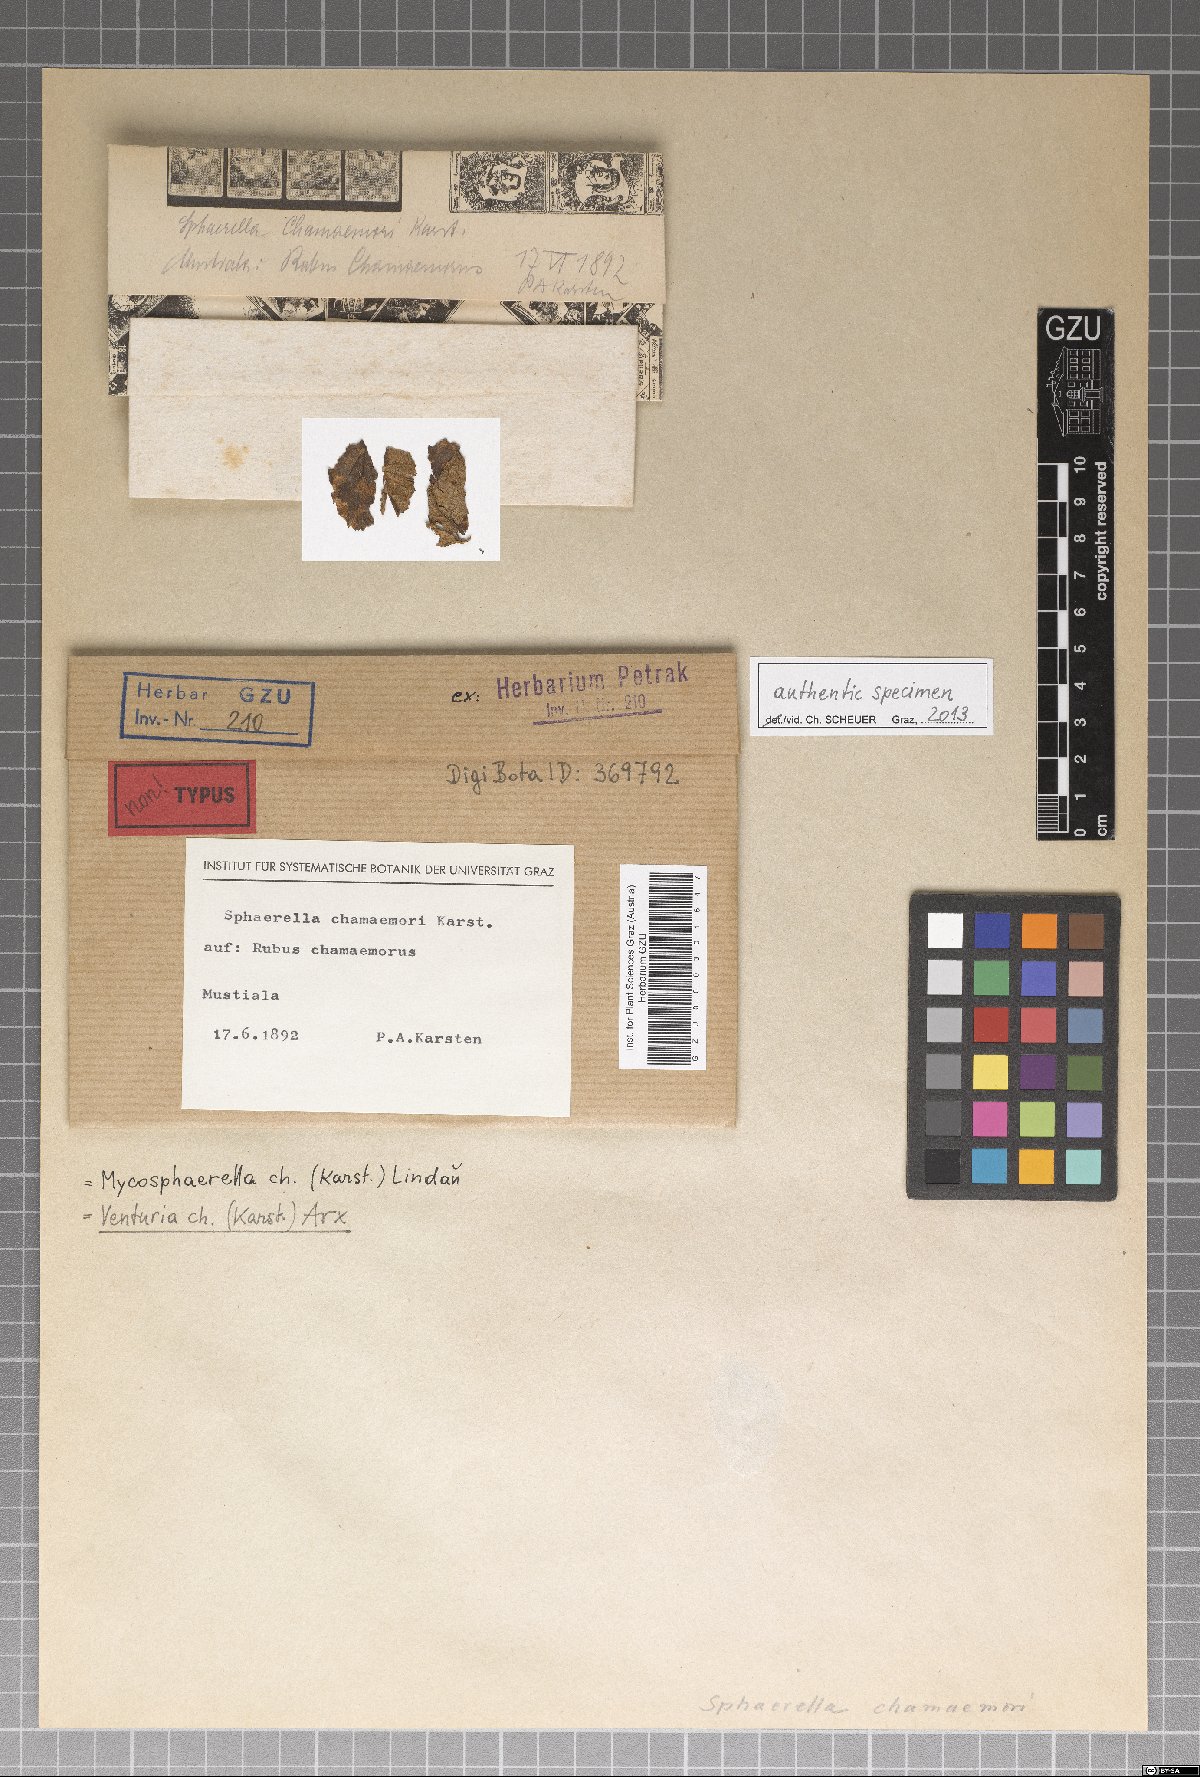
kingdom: Fungi
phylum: Ascomycota
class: Dothideomycetes
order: Venturiales
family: Venturiaceae
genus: Venturia
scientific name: Venturia chamaemori
